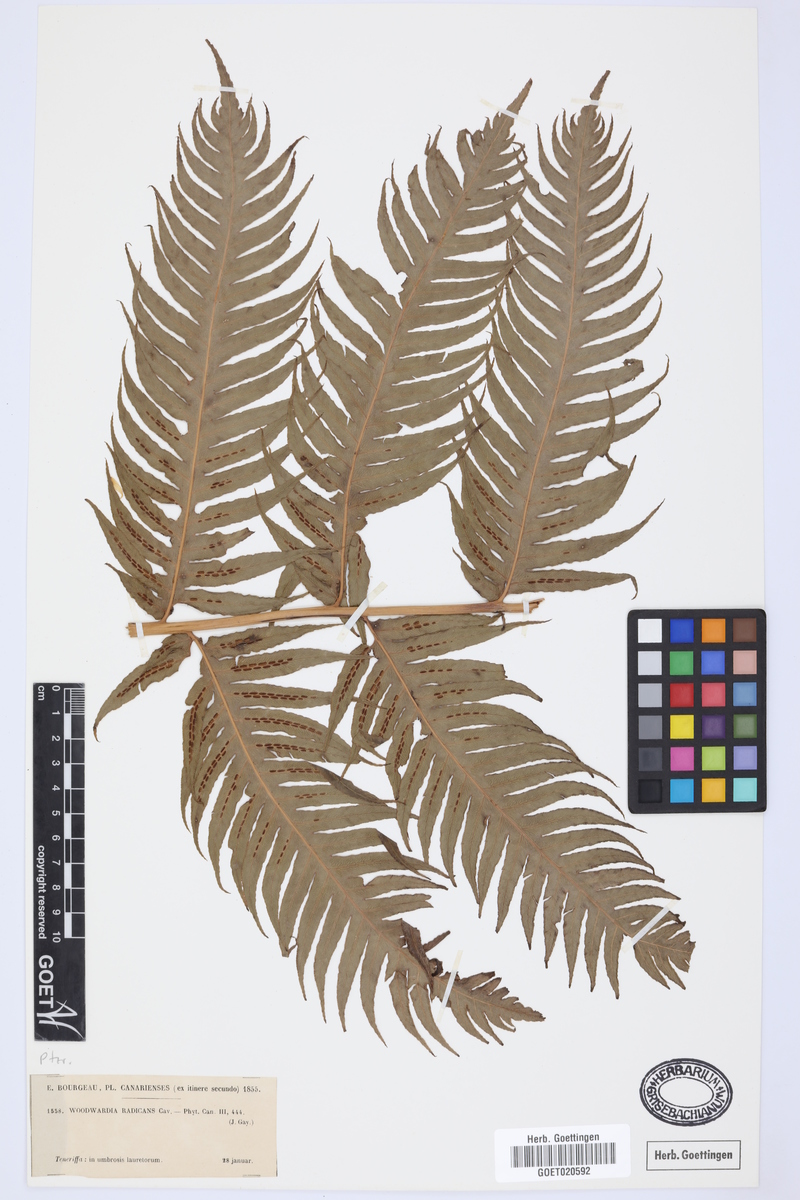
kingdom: Plantae
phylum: Tracheophyta
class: Polypodiopsida
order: Polypodiales
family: Blechnaceae
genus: Woodwardia
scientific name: Woodwardia radicans
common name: Rooting chainfern
